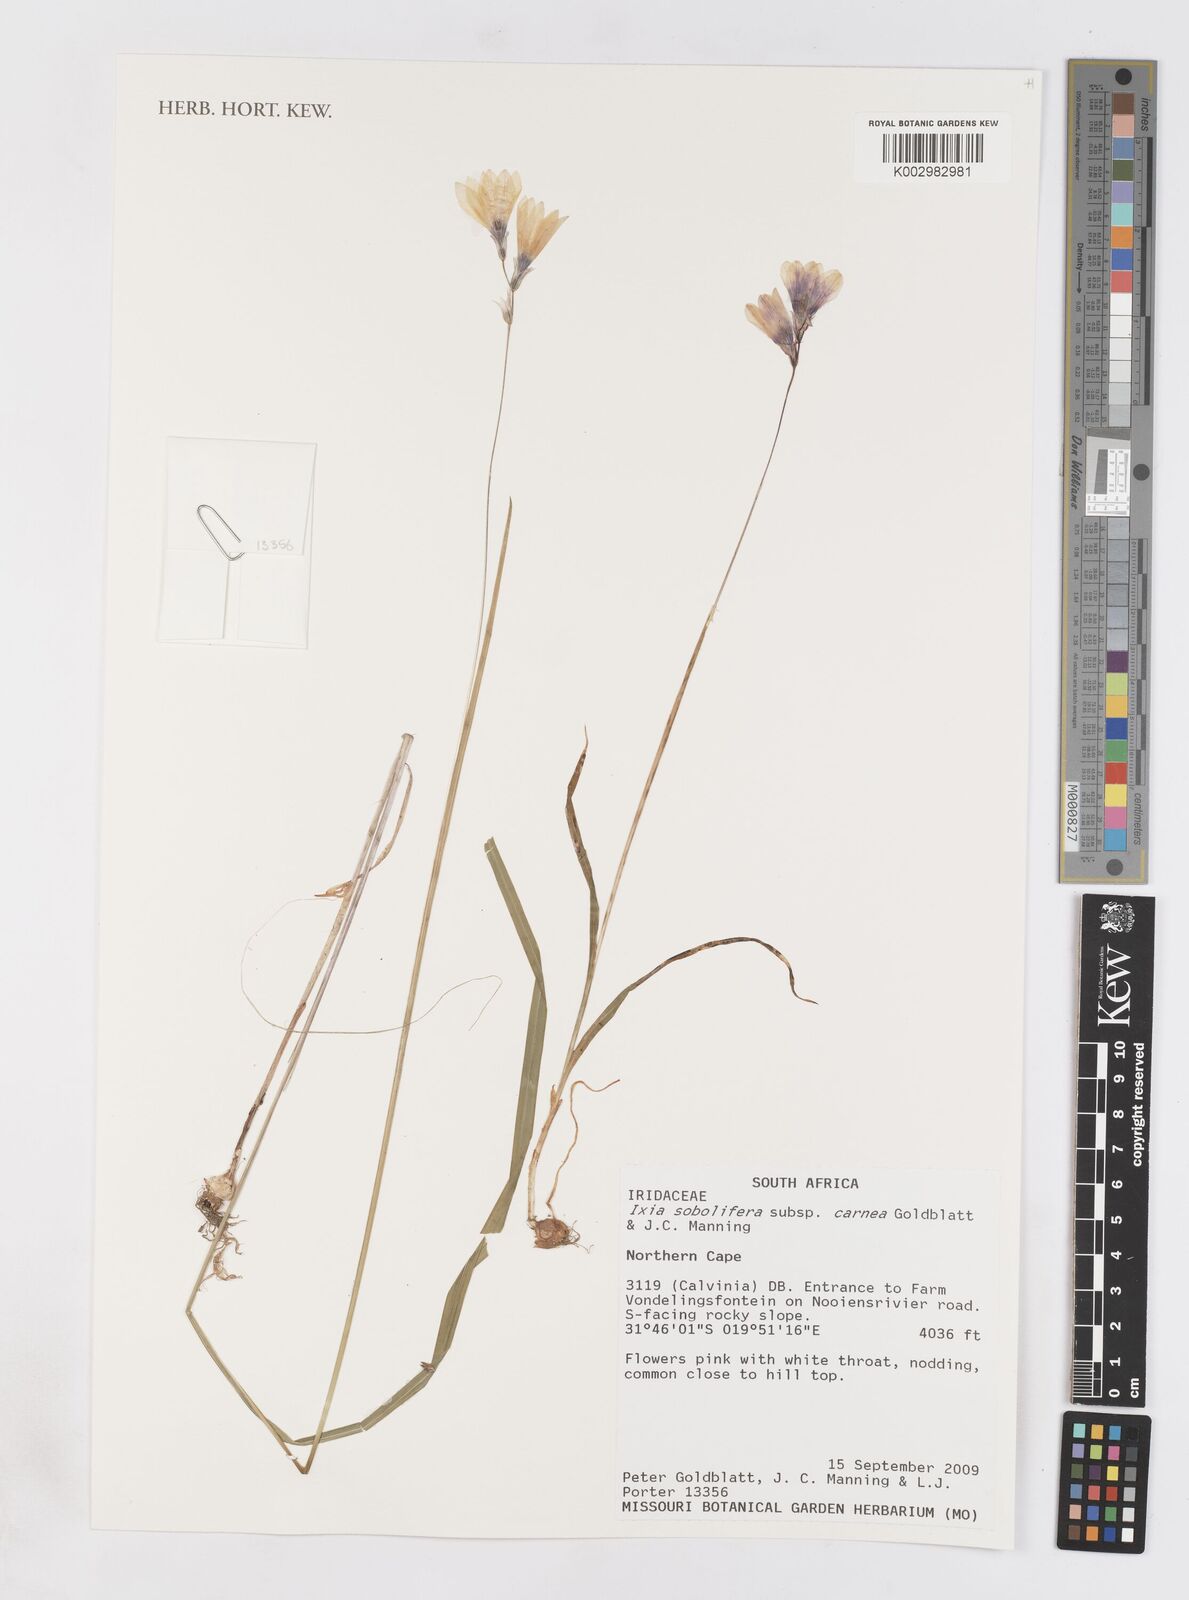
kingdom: Plantae
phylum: Tracheophyta
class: Liliopsida
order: Asparagales
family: Iridaceae
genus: Ixia
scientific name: Ixia sobolifera
